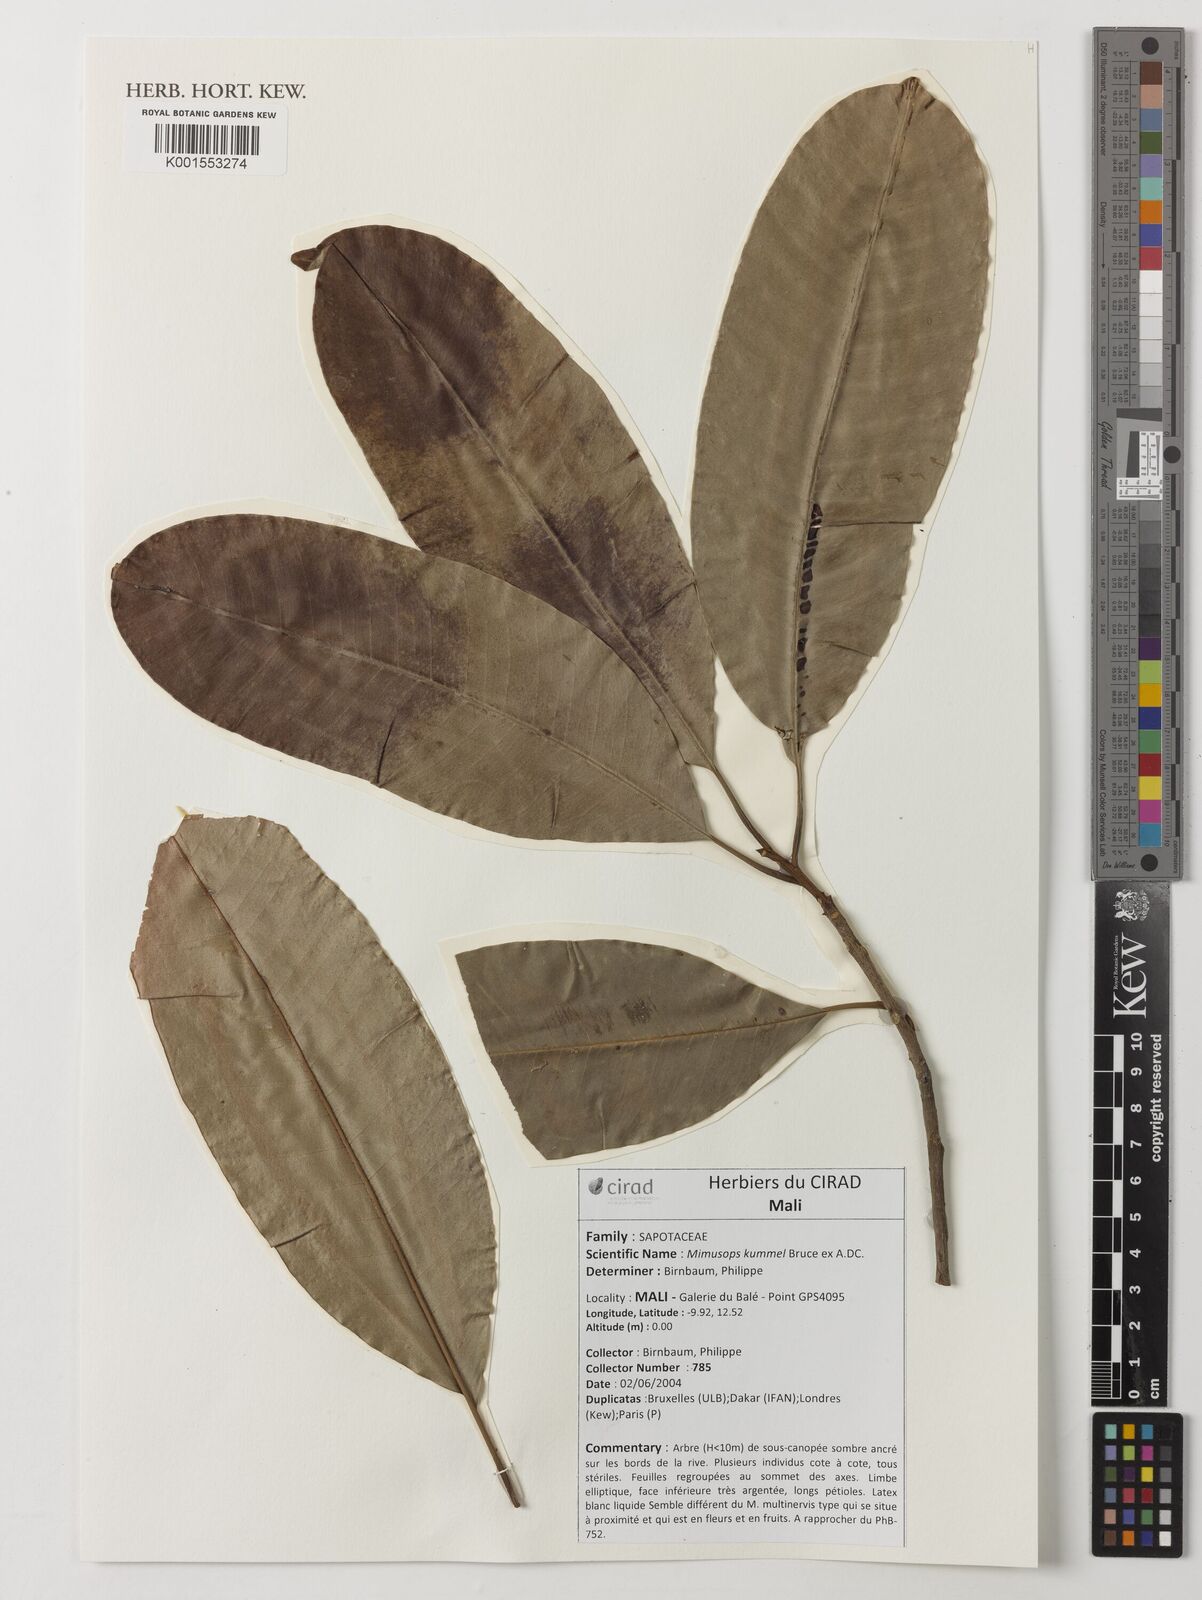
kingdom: Plantae
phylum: Tracheophyta
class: Magnoliopsida
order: Ericales
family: Sapotaceae
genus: Mimusops
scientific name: Mimusops kummel
